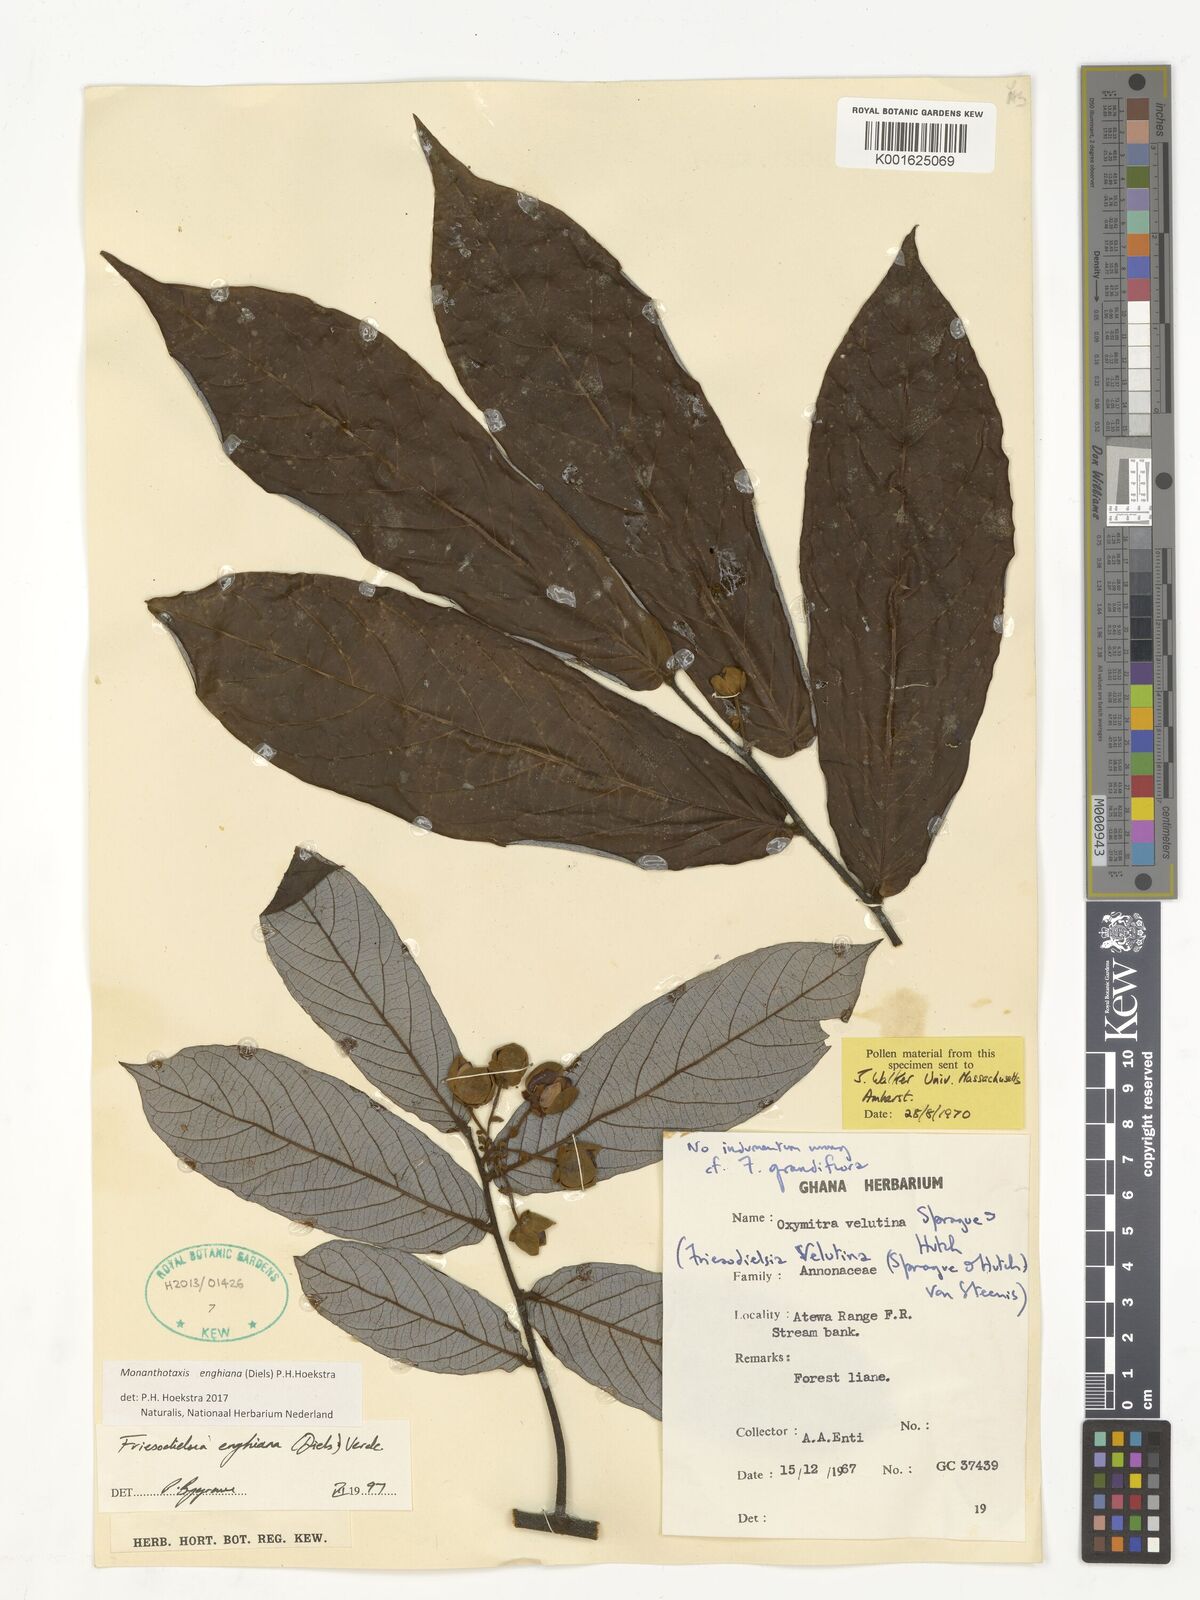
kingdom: Plantae
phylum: Tracheophyta
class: Magnoliopsida
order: Magnoliales
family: Annonaceae
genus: Friesodielsia
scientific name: Friesodielsia enghiana
